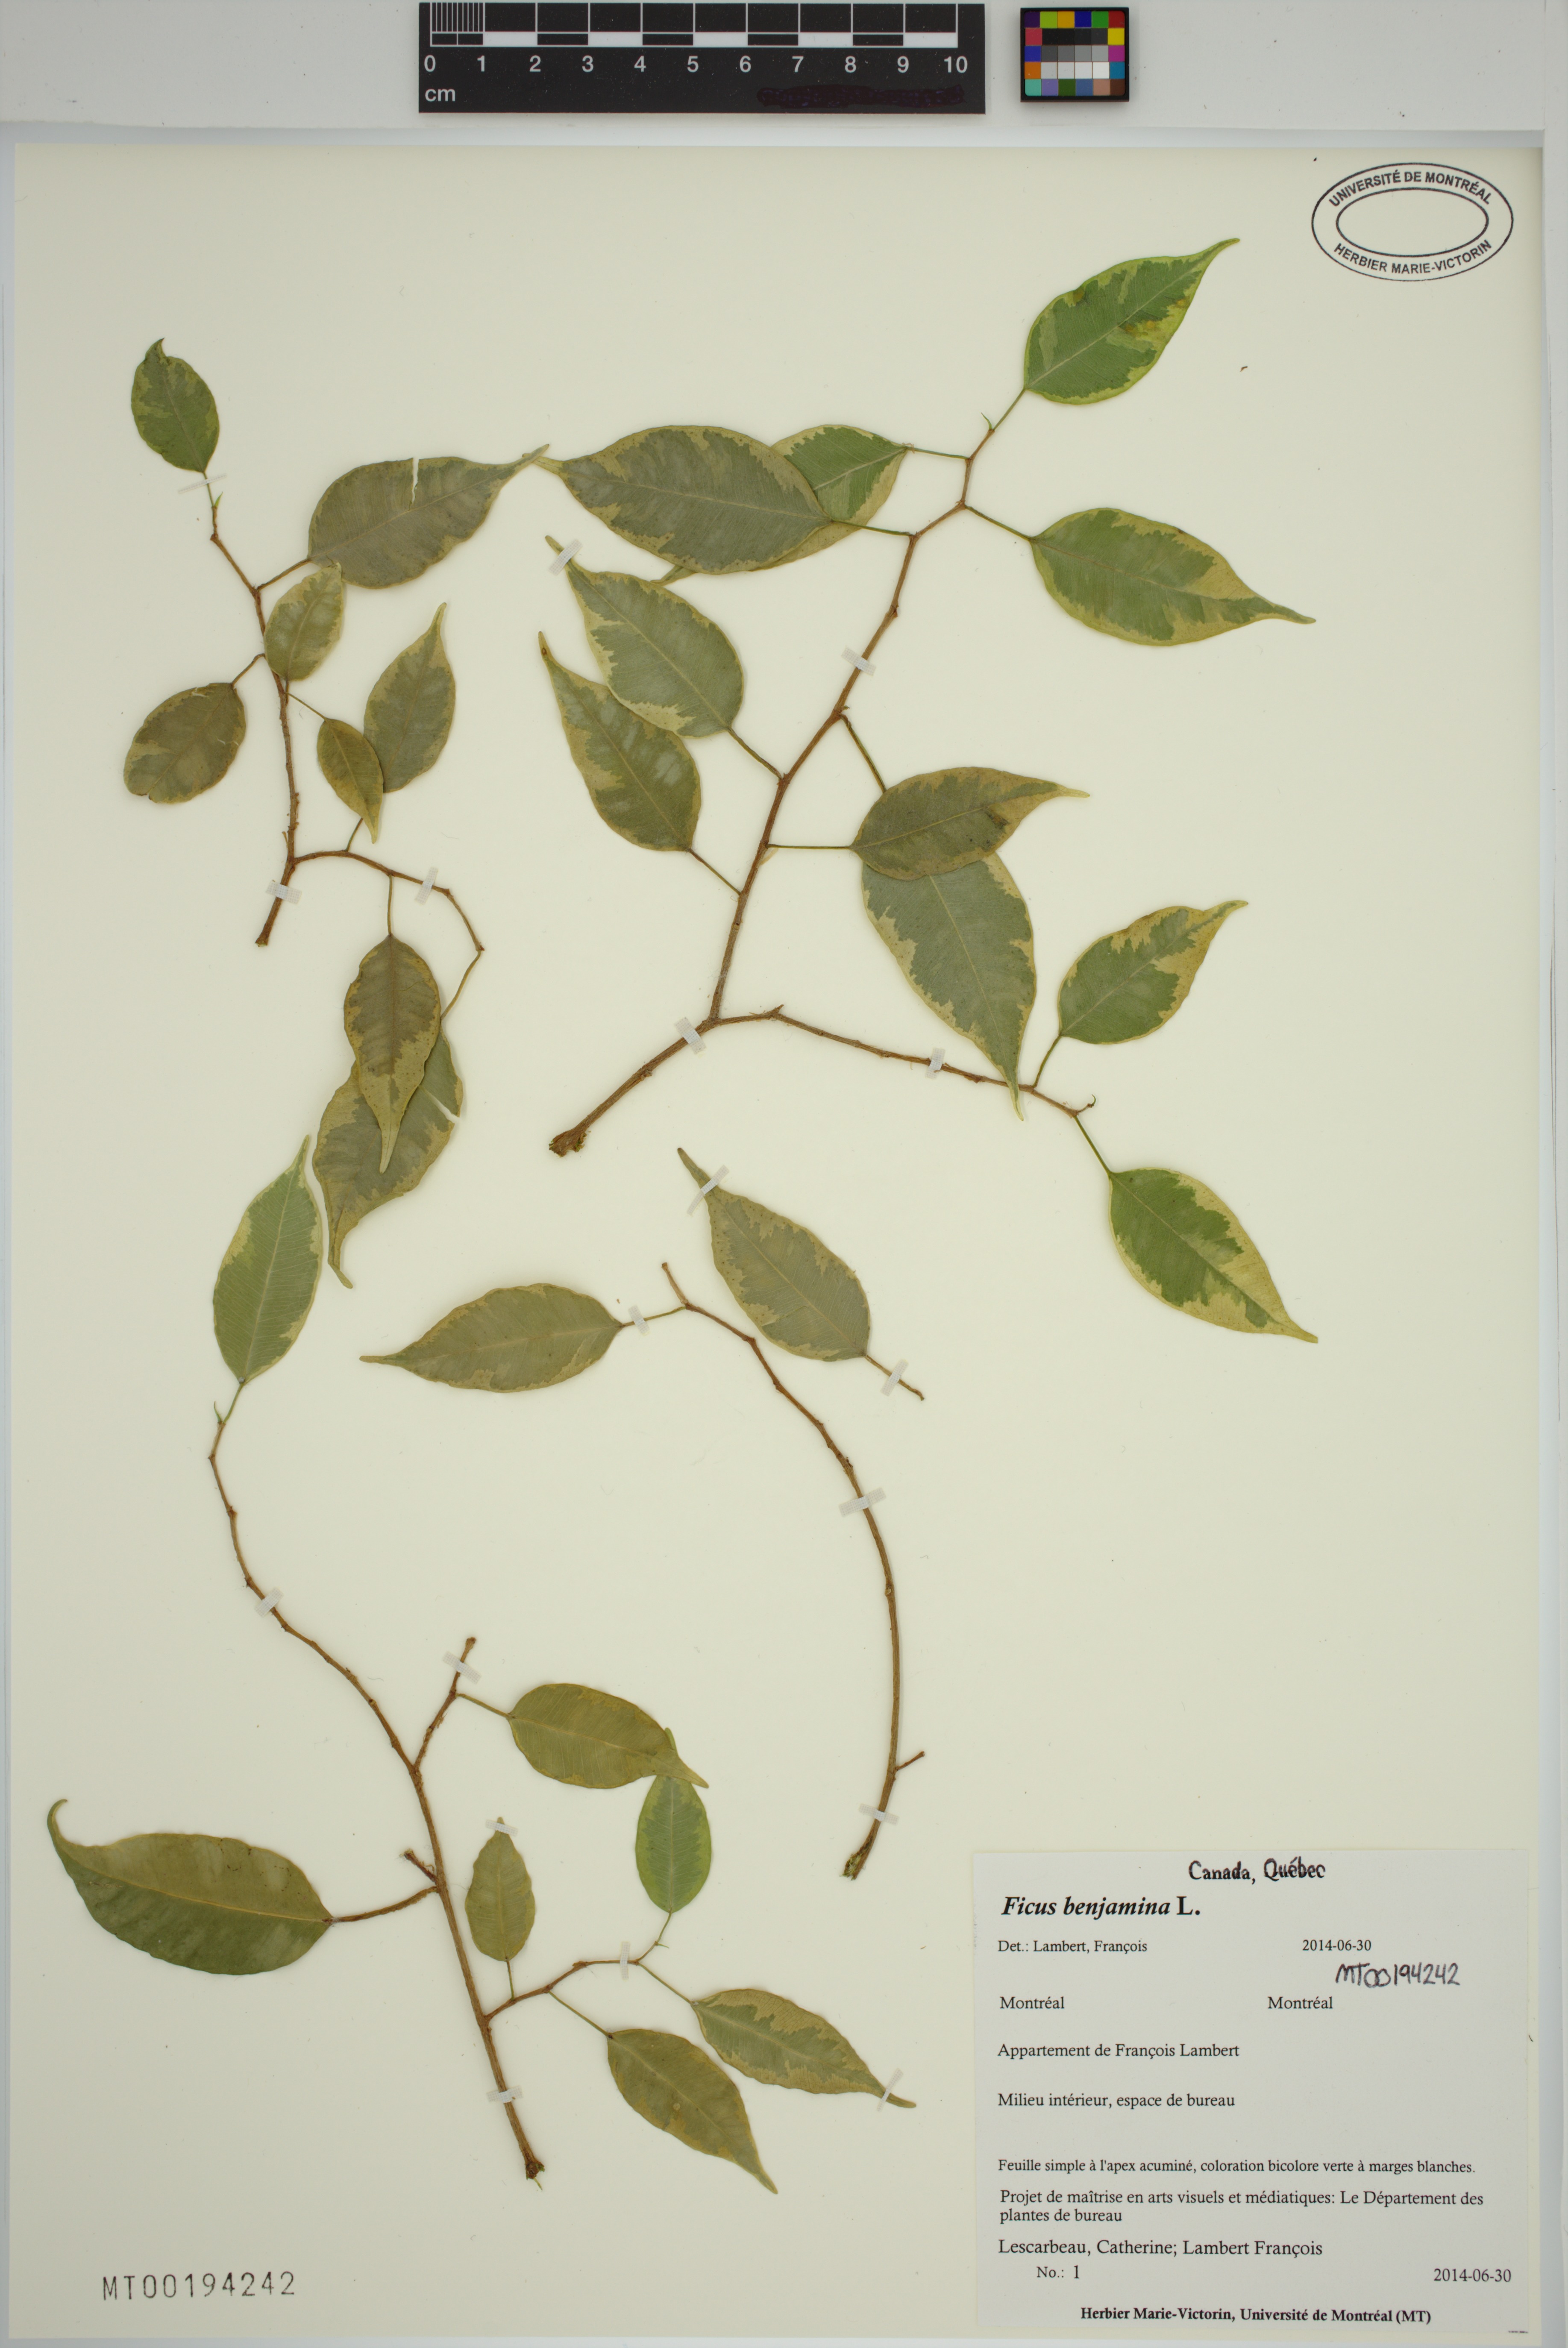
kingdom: Plantae
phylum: Tracheophyta
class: Magnoliopsida
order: Rosales
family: Moraceae
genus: Ficus
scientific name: Ficus benjamina
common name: Weeping fig
